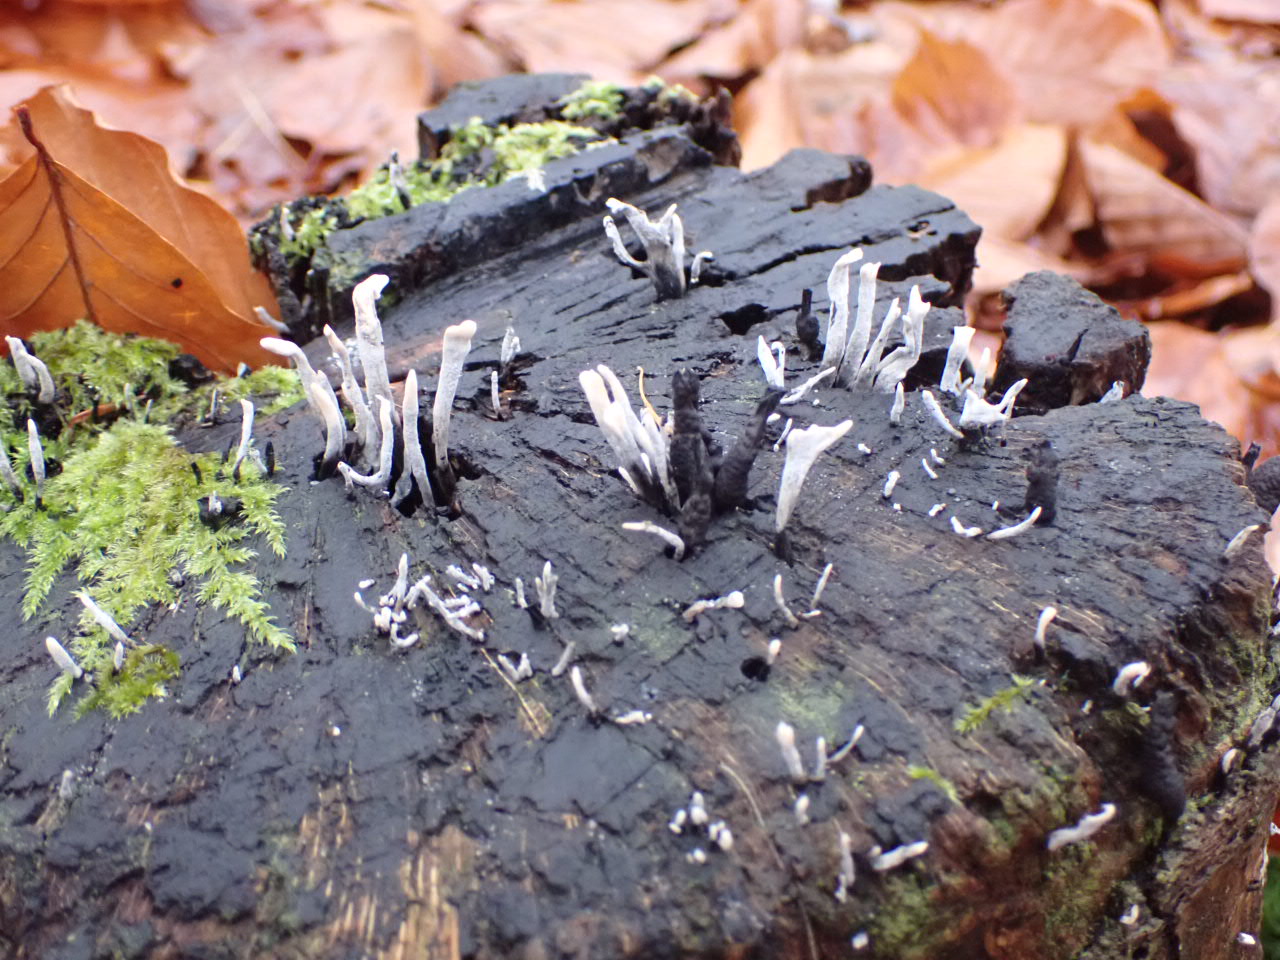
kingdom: Fungi
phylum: Ascomycota
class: Sordariomycetes
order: Xylariales
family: Xylariaceae
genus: Xylaria
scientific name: Xylaria hypoxylon
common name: grenet stødsvamp
